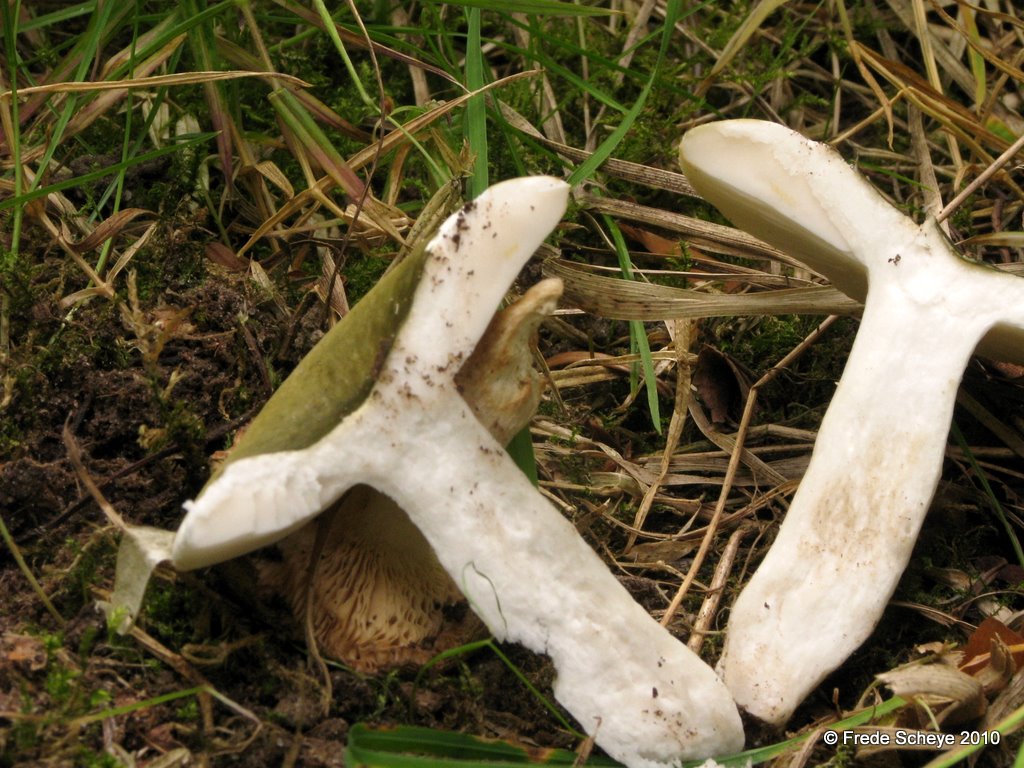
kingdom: Fungi
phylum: Basidiomycota
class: Agaricomycetes
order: Russulales
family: Russulaceae
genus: Russula
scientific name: Russula aeruginea
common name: græsgrøn skørhat
